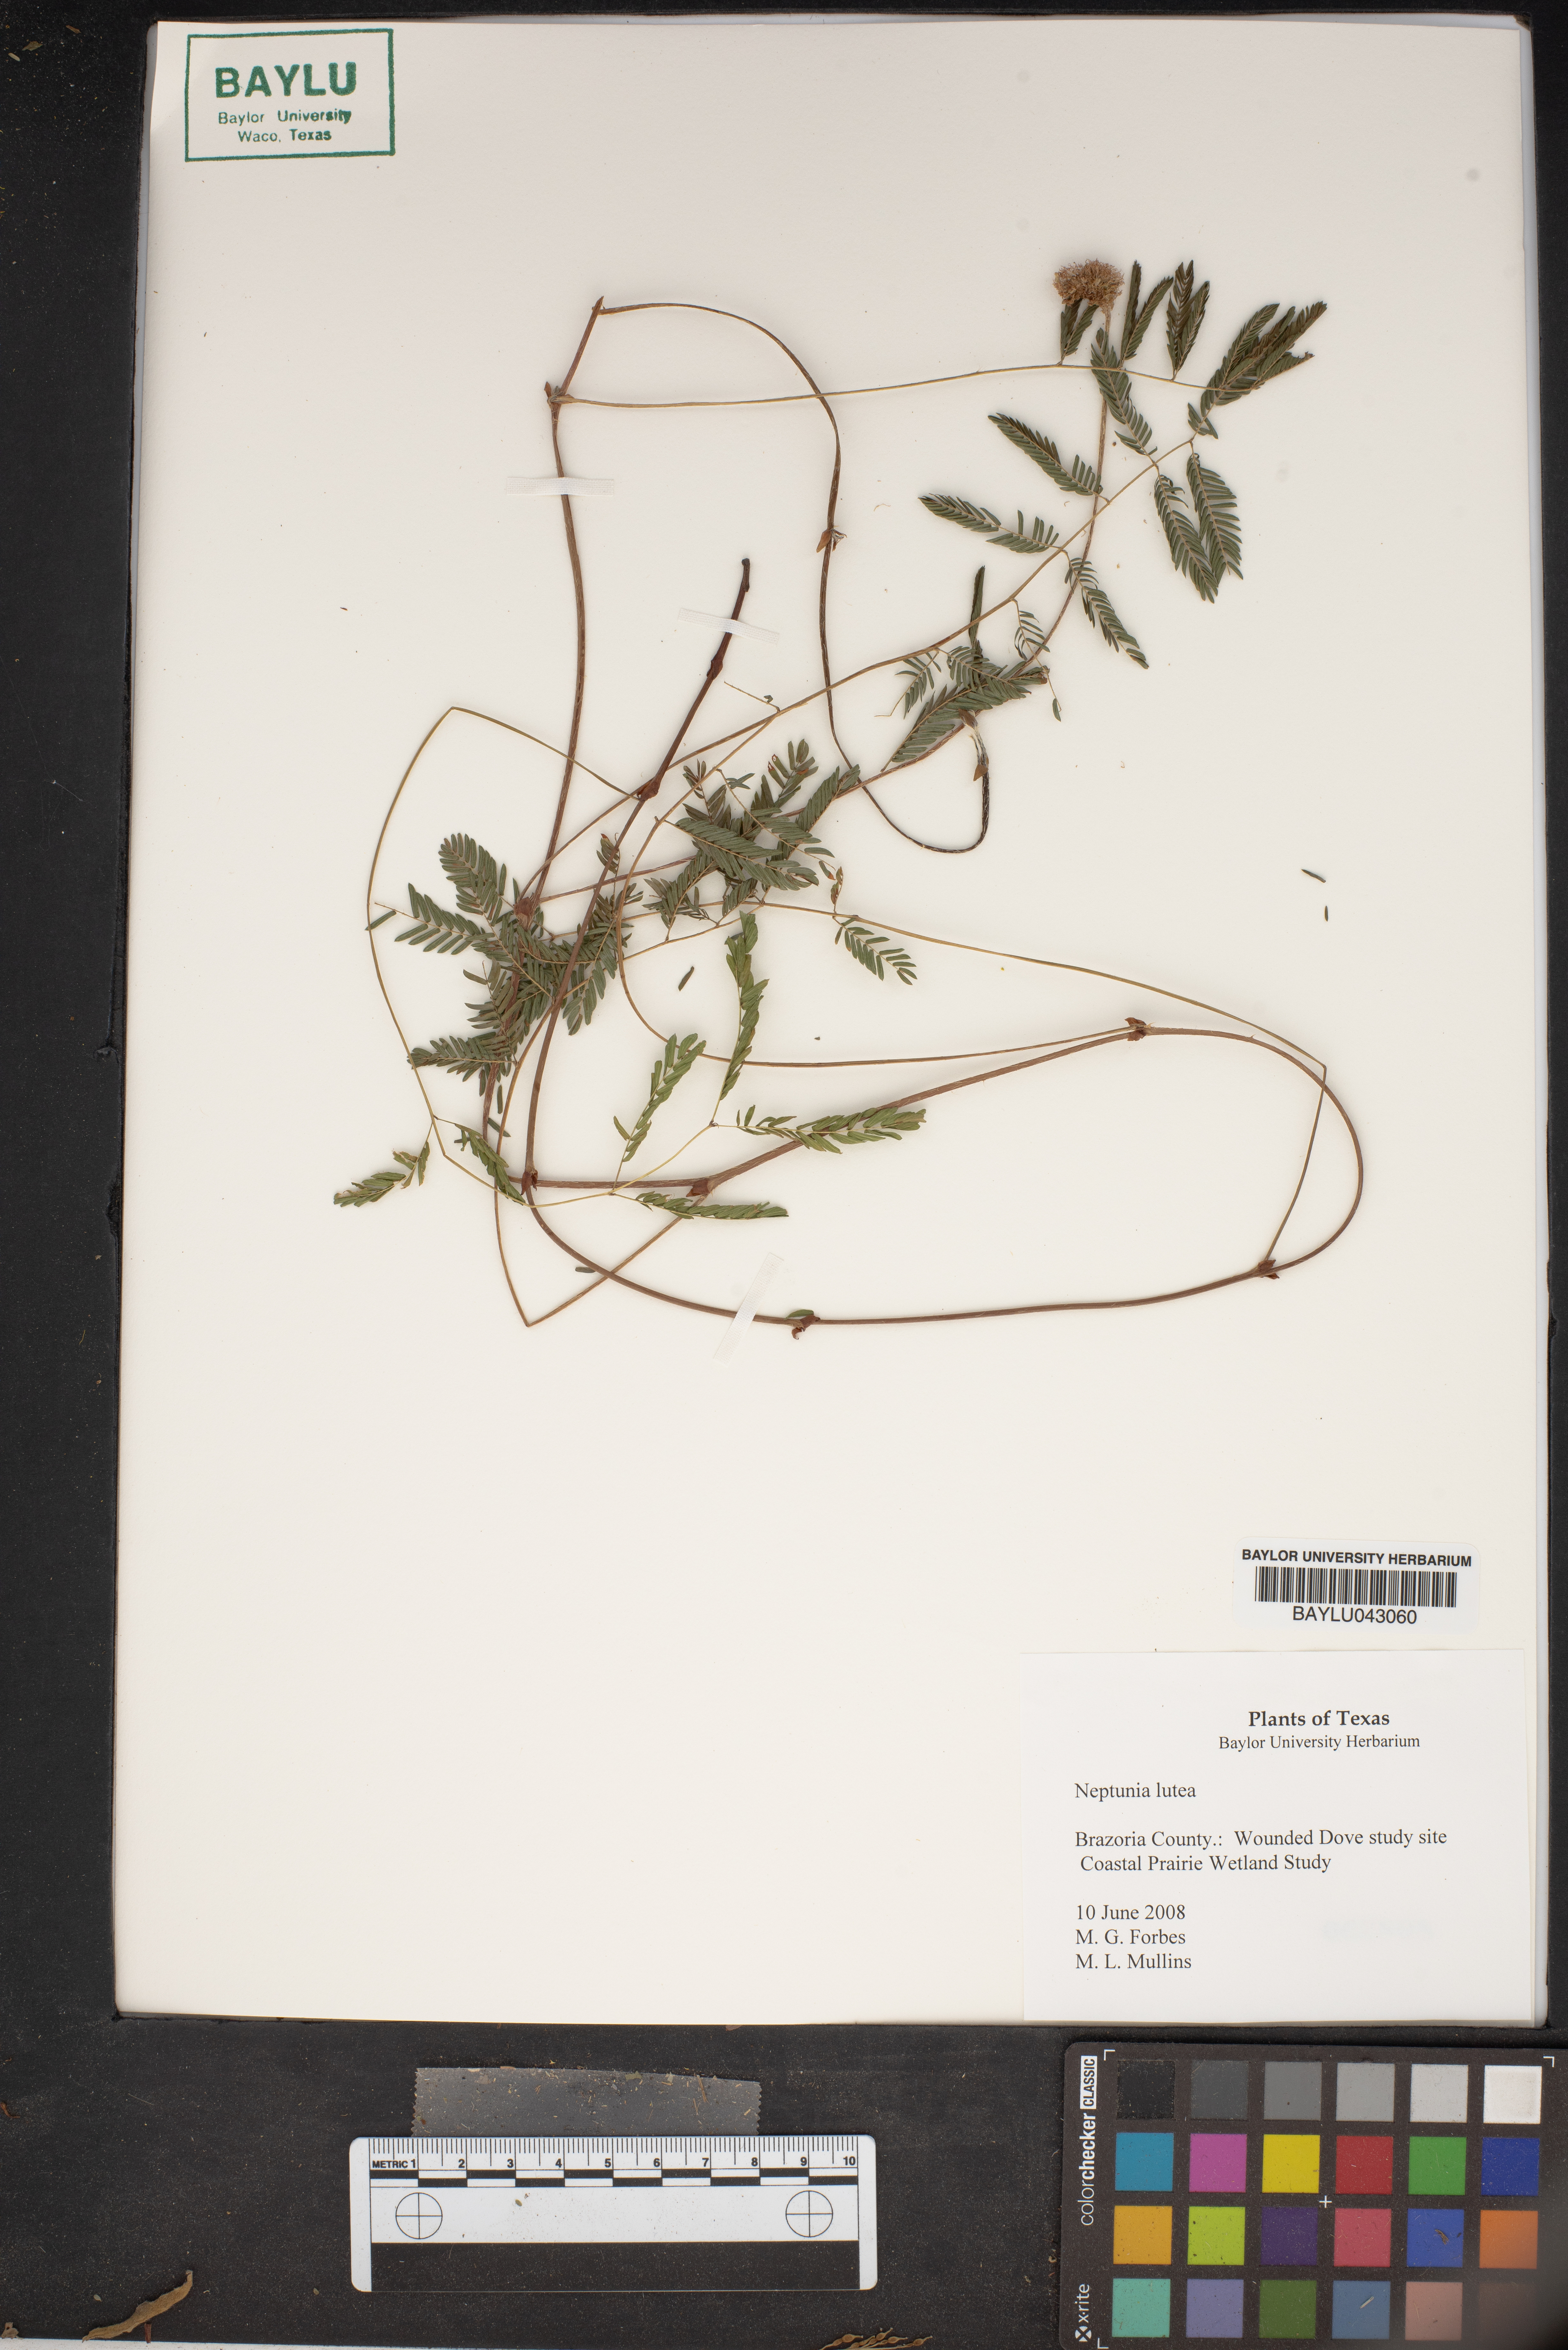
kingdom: Plantae
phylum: Tracheophyta
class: Magnoliopsida
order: Fabales
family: Fabaceae
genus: Neptunia
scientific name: Neptunia lutea
